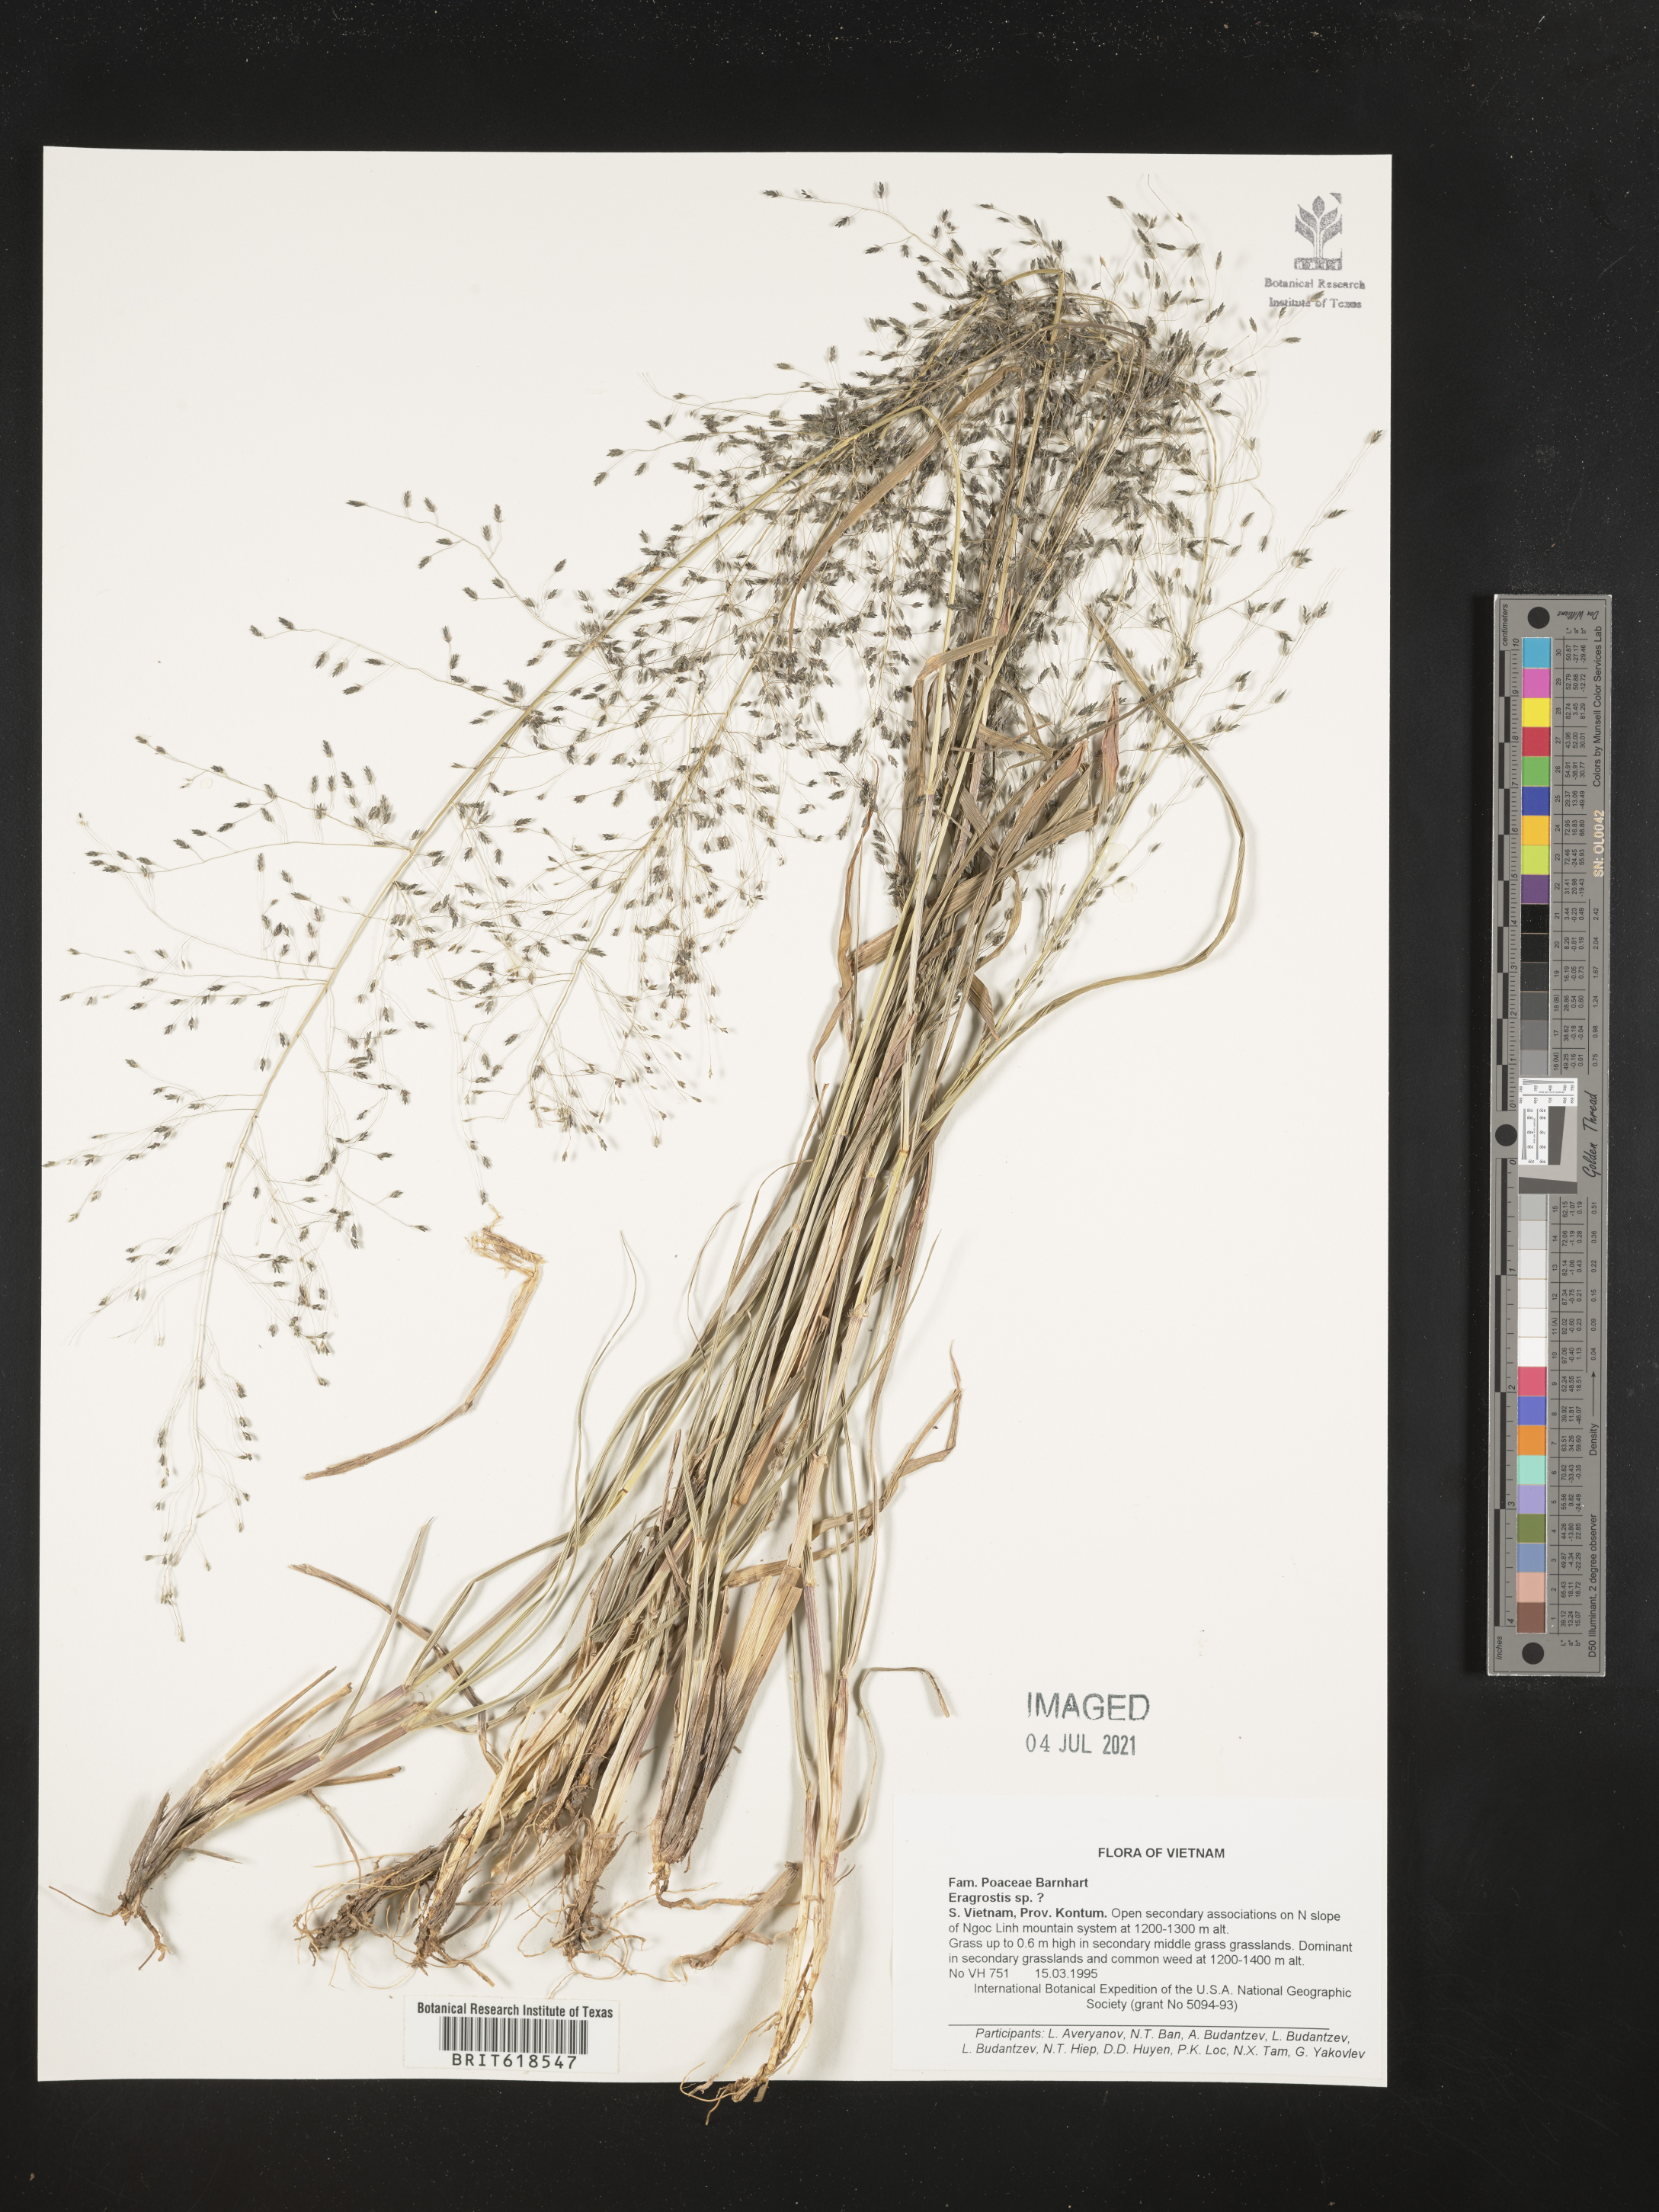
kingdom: Plantae
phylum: Tracheophyta
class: Liliopsida
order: Poales
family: Poaceae
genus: Eragrostis
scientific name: Eragrostis
